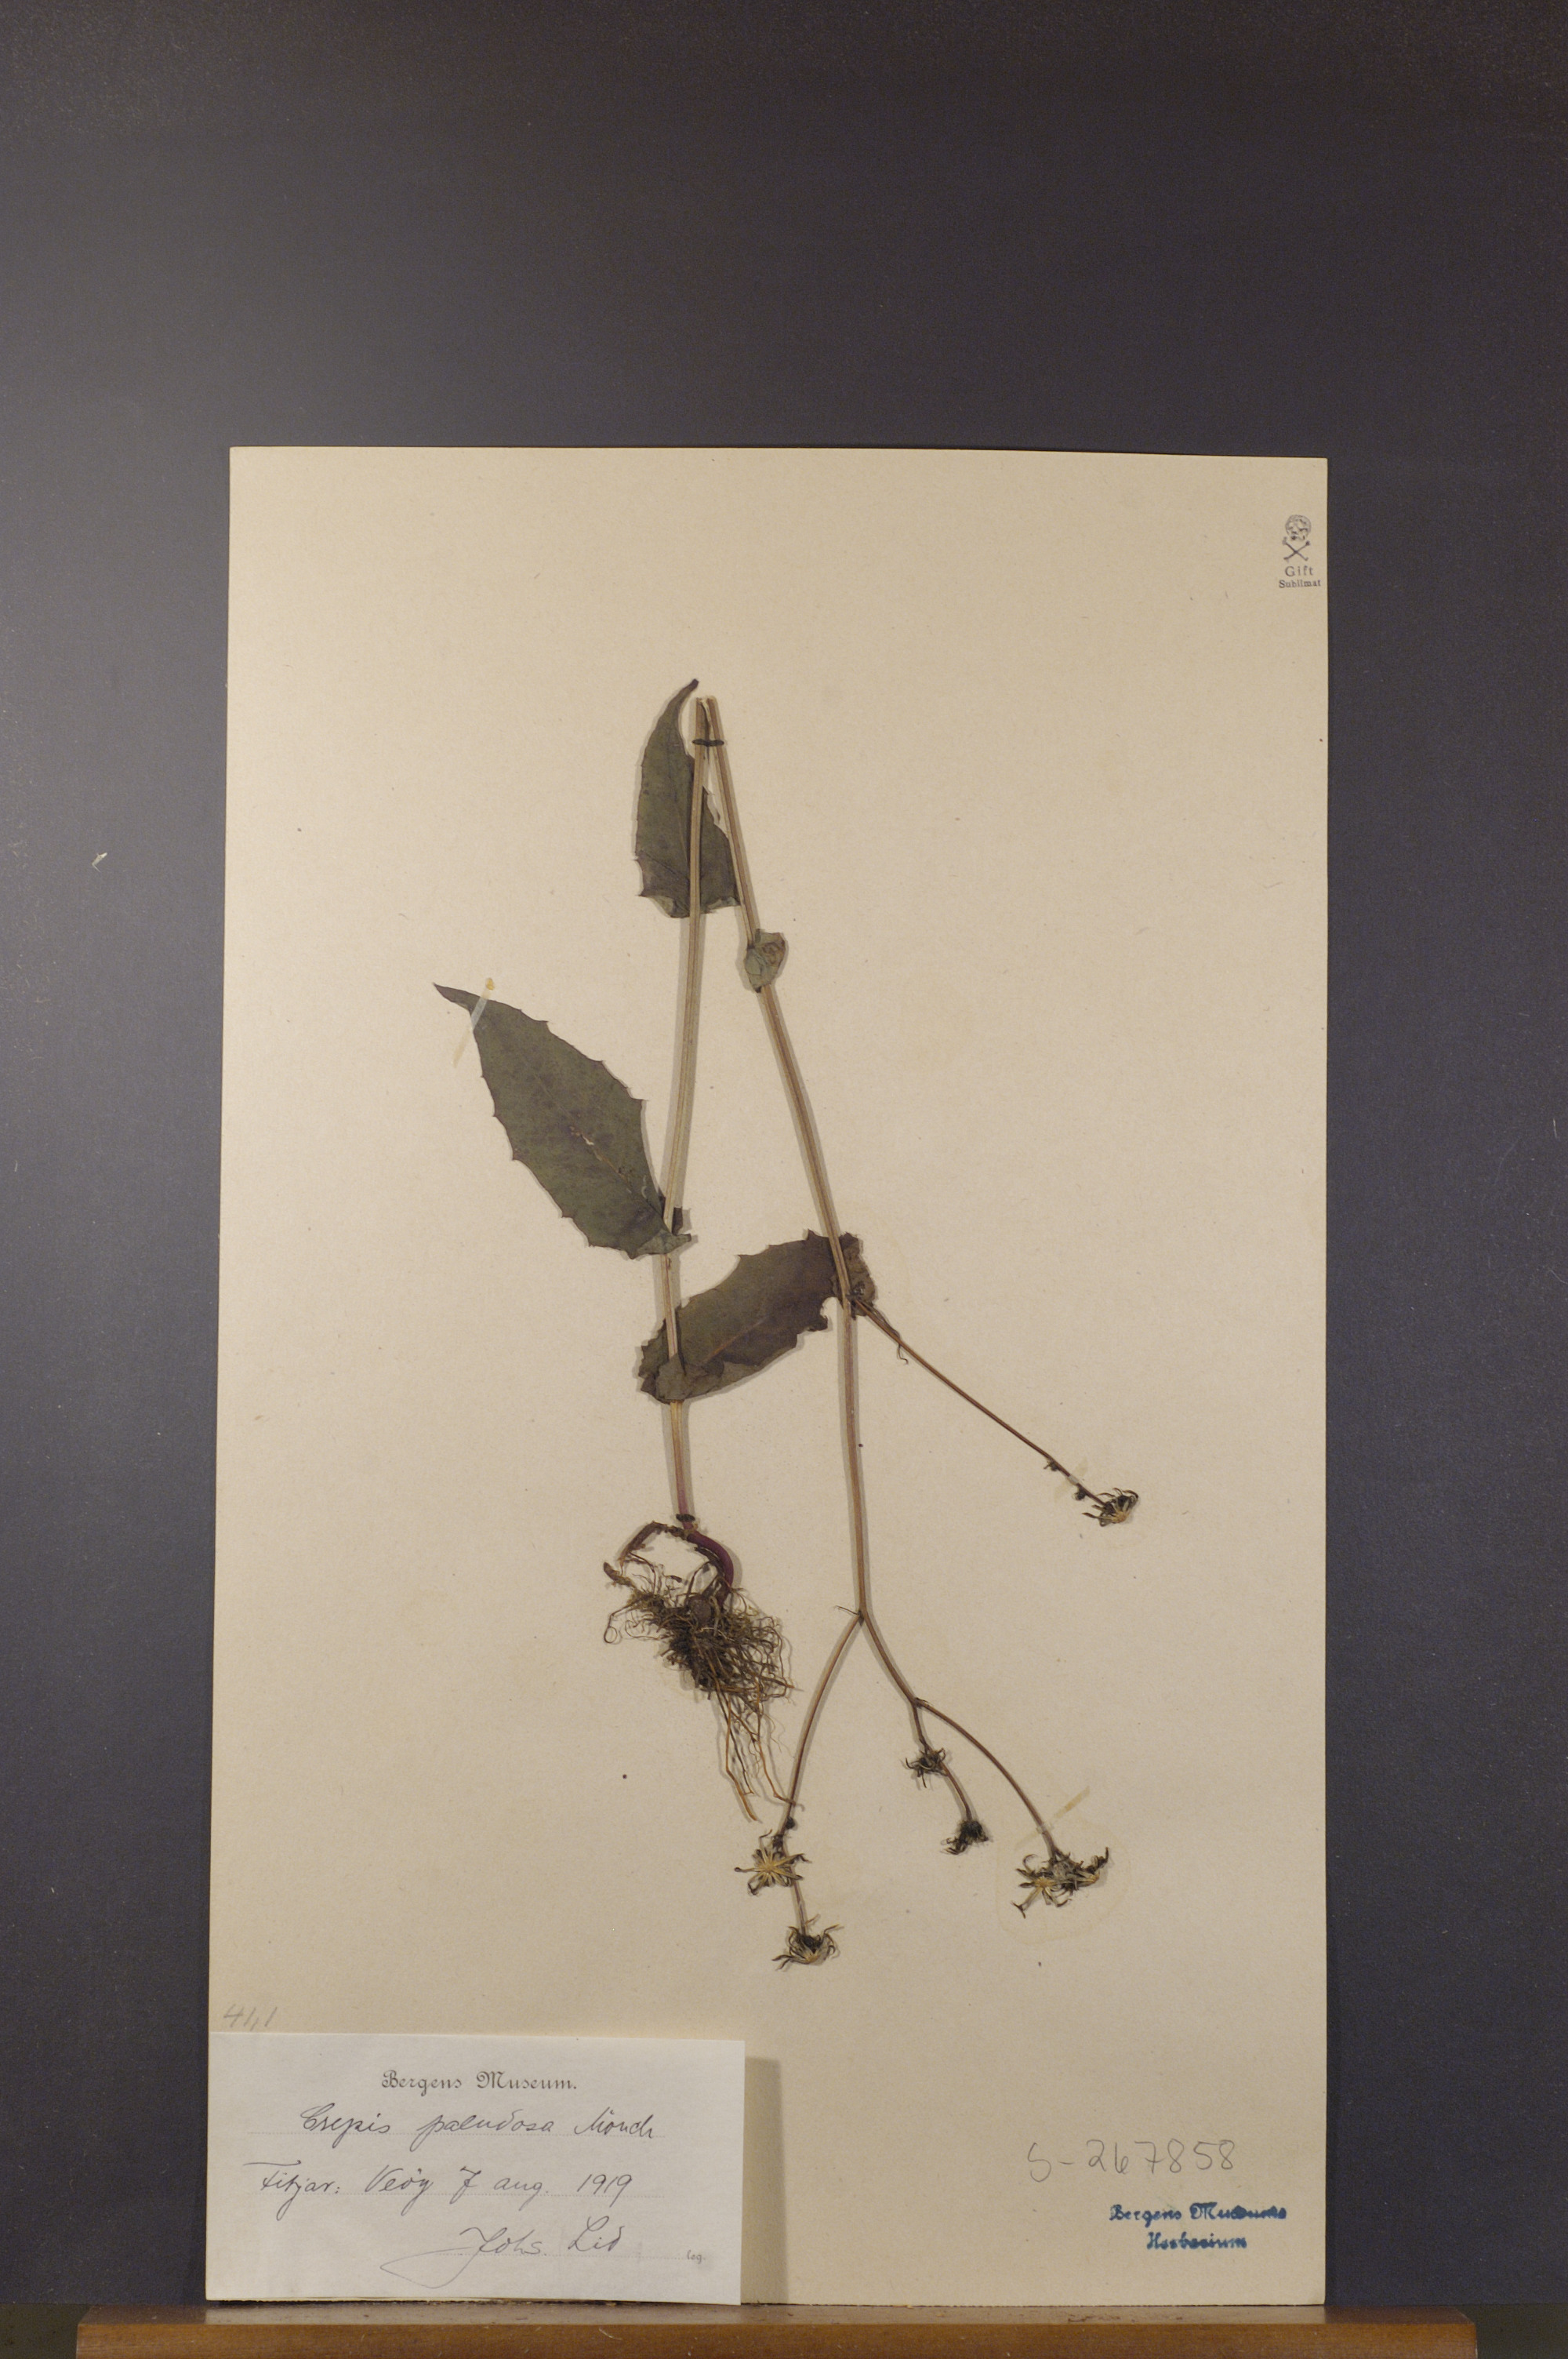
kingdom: Plantae
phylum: Tracheophyta
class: Magnoliopsida
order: Asterales
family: Asteraceae
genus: Crepis
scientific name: Crepis paludosa
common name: Marsh hawk's-beard
